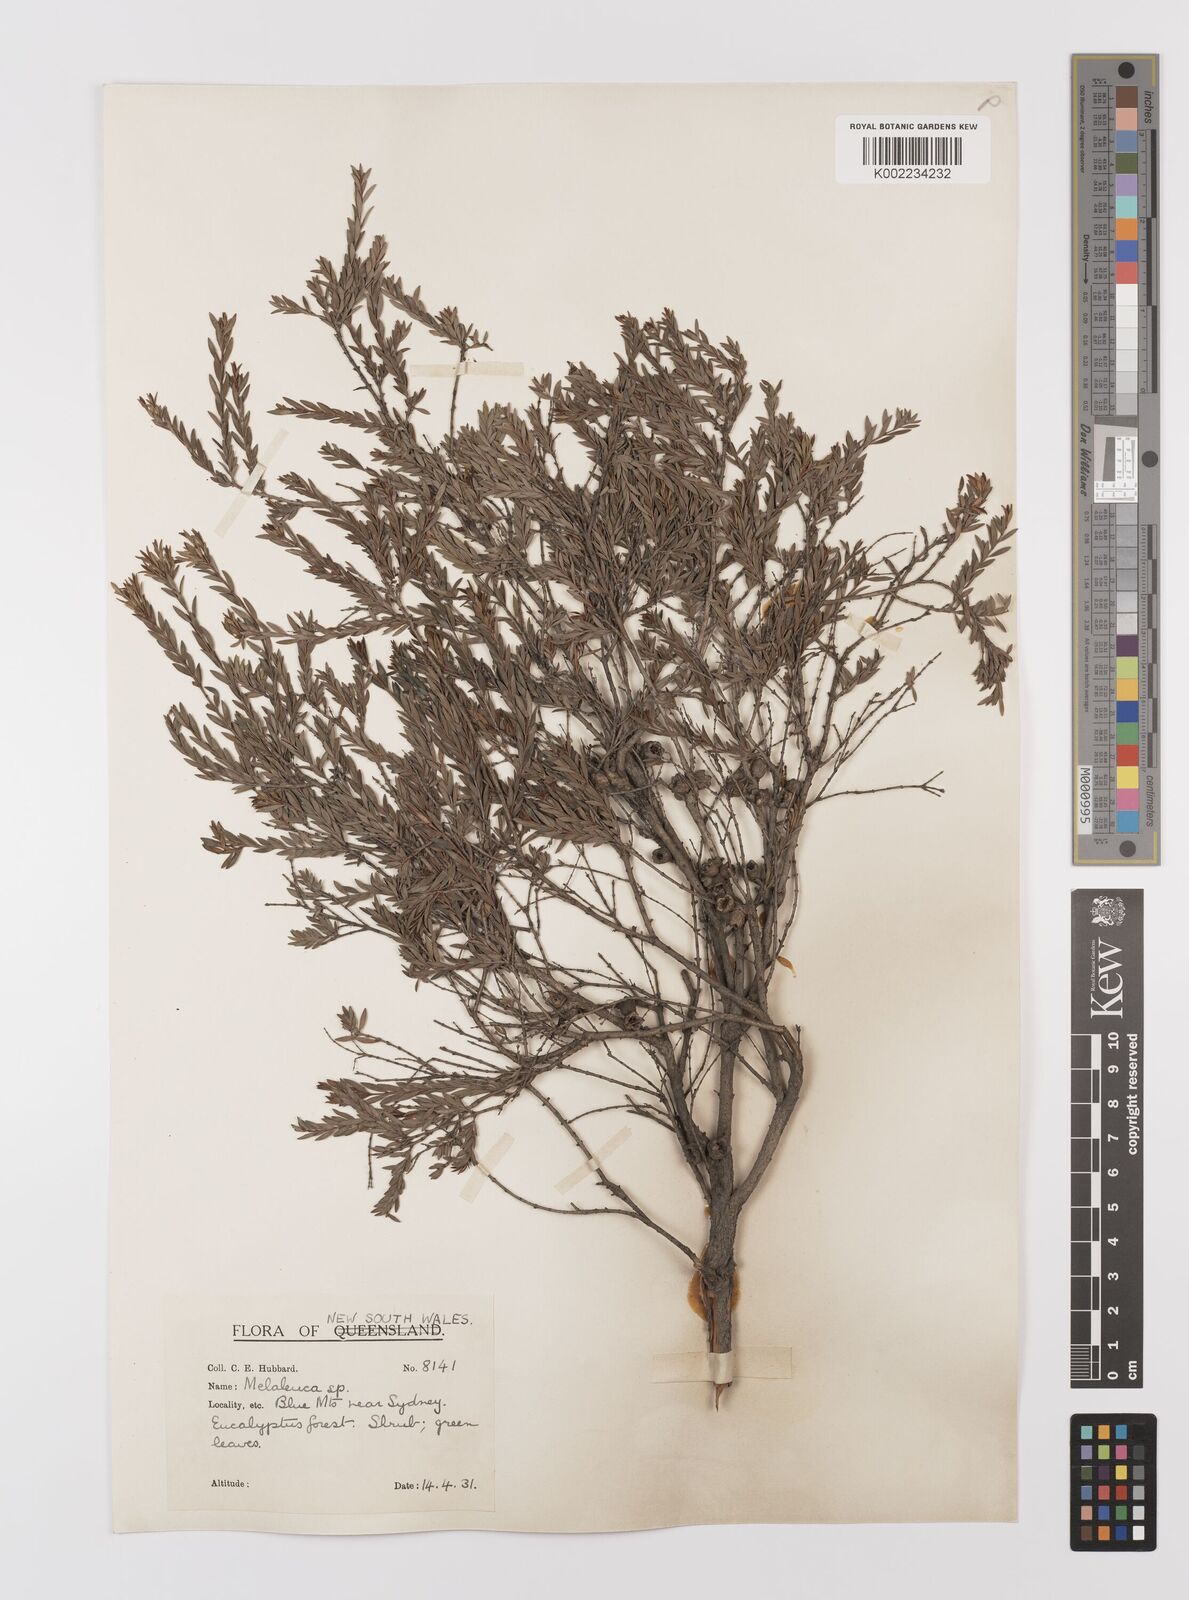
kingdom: Plantae
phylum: Tracheophyta
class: Magnoliopsida
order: Myrtales
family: Myrtaceae
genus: Melaleuca
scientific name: Melaleuca thymifolia
